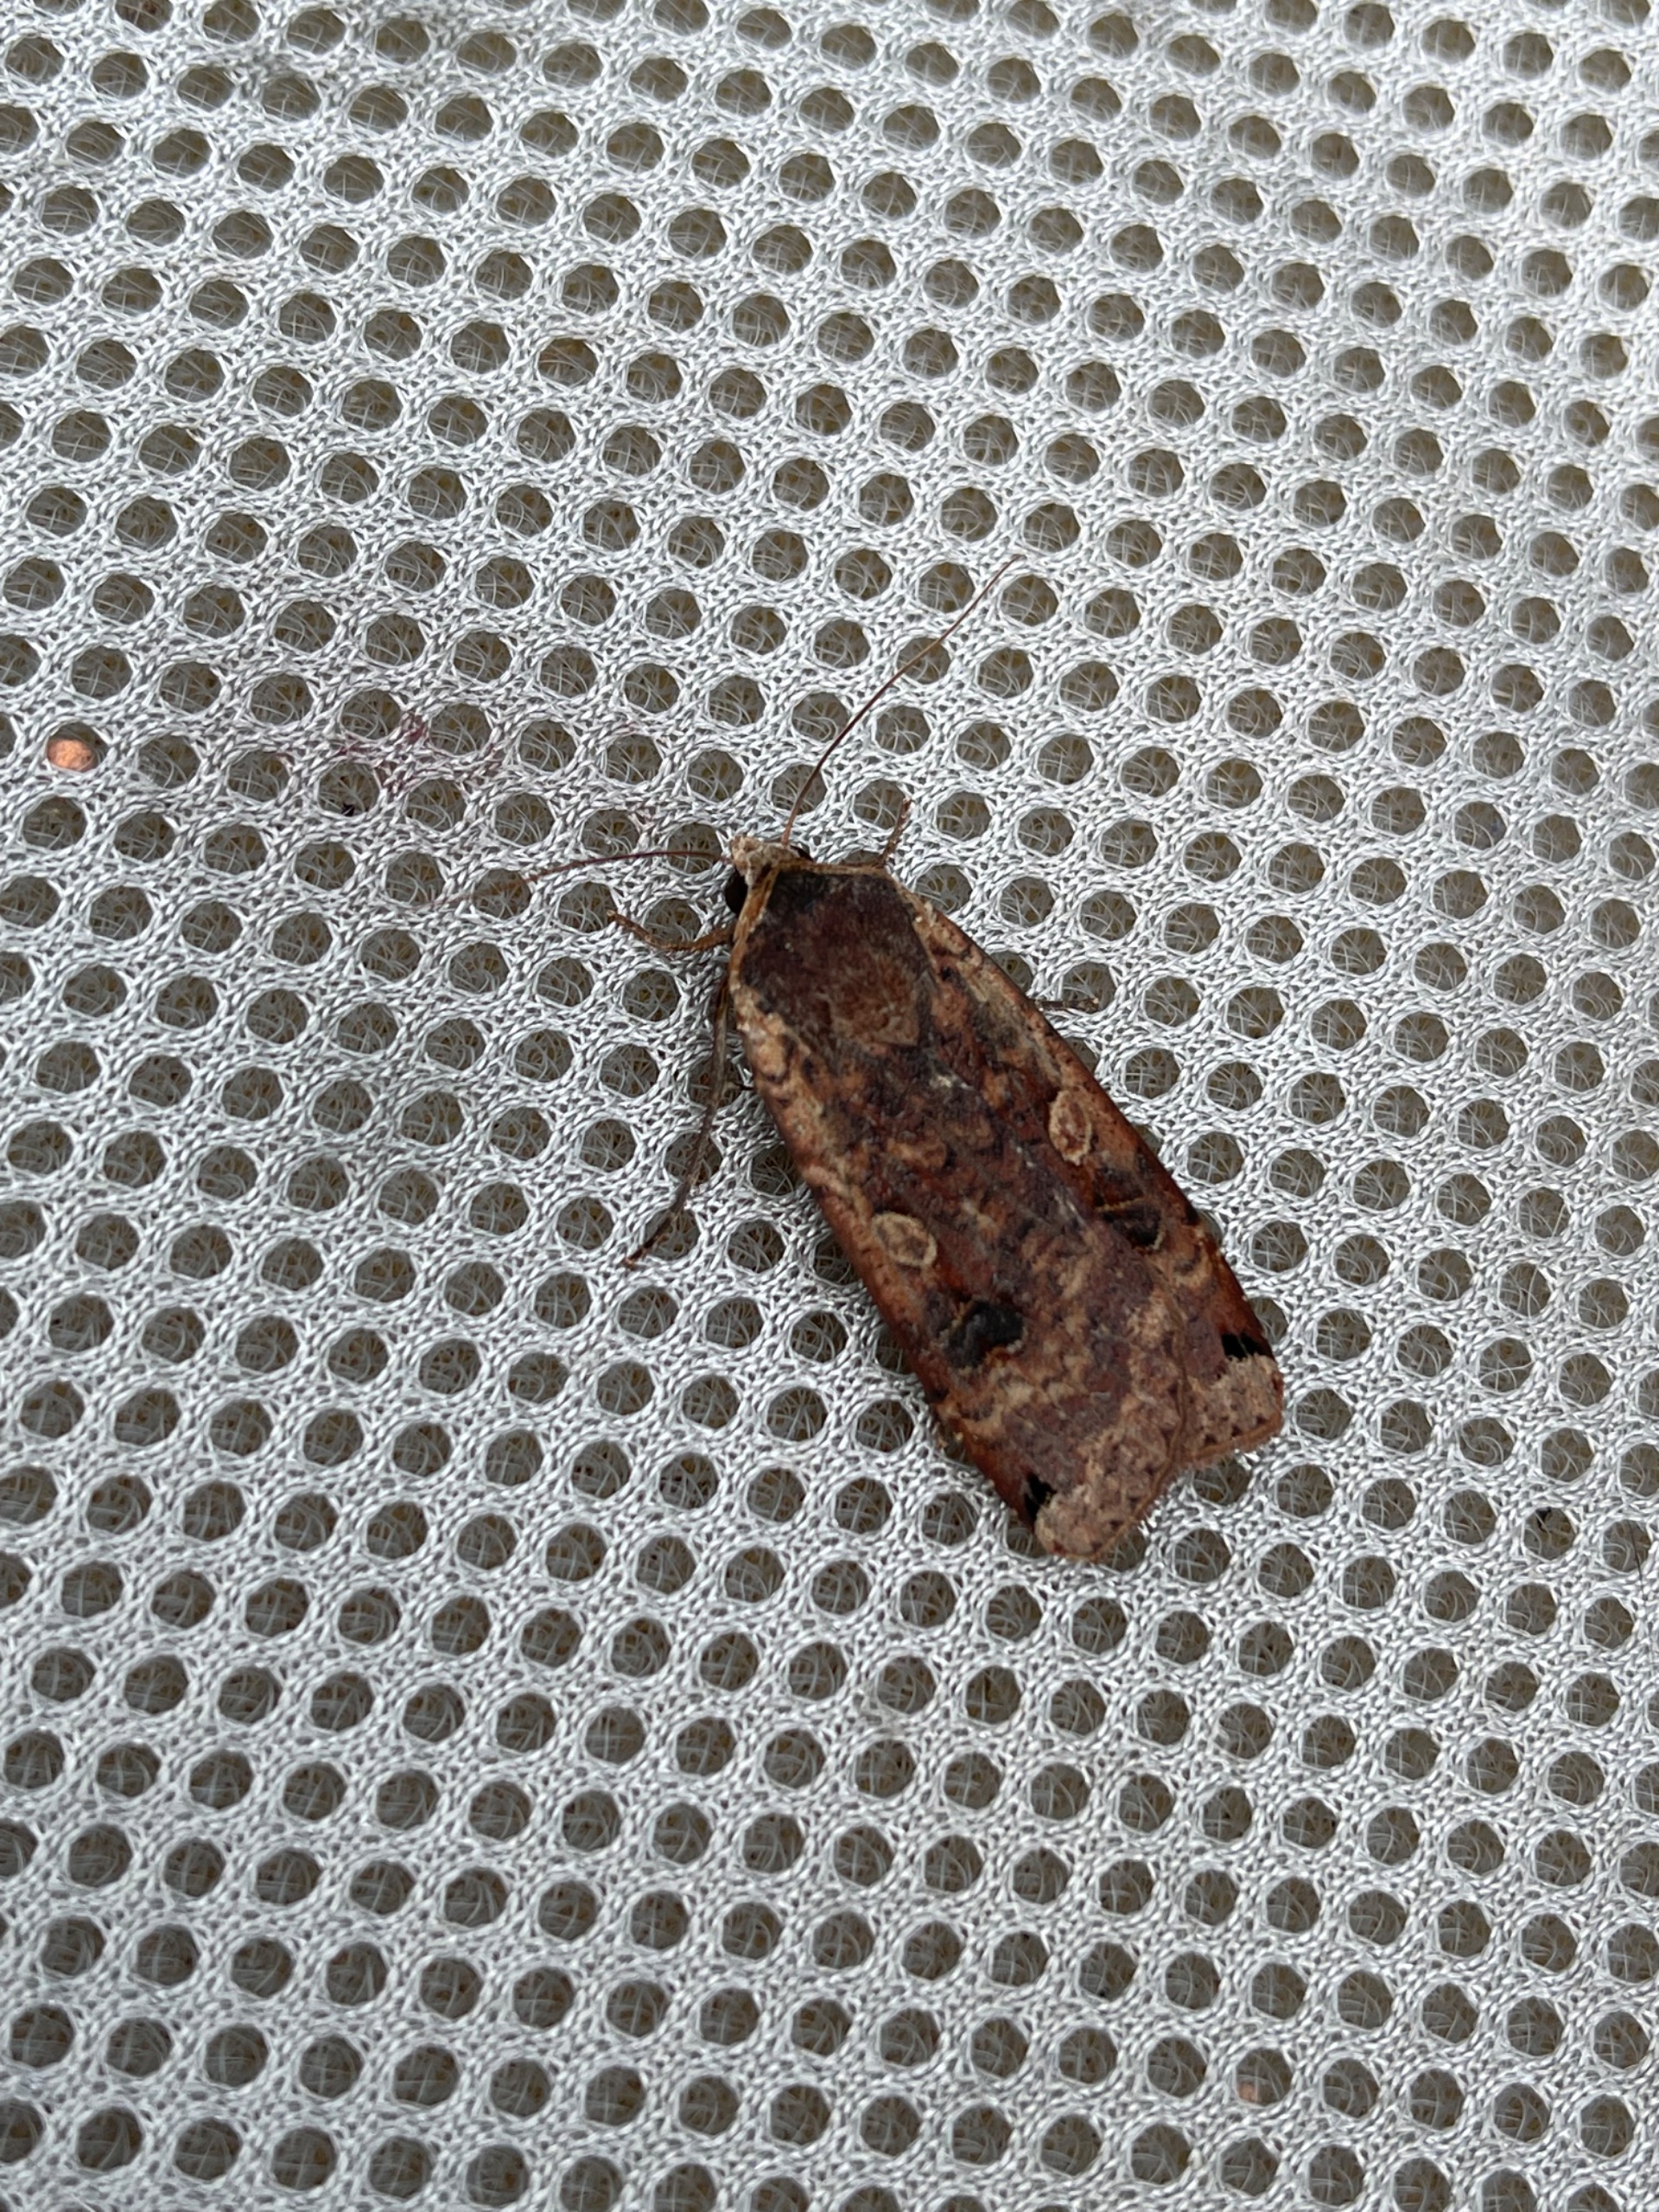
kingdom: Animalia
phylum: Arthropoda
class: Insecta
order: Lepidoptera
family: Noctuidae
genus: Noctua
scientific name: Noctua pronuba
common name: Stor smutugle
